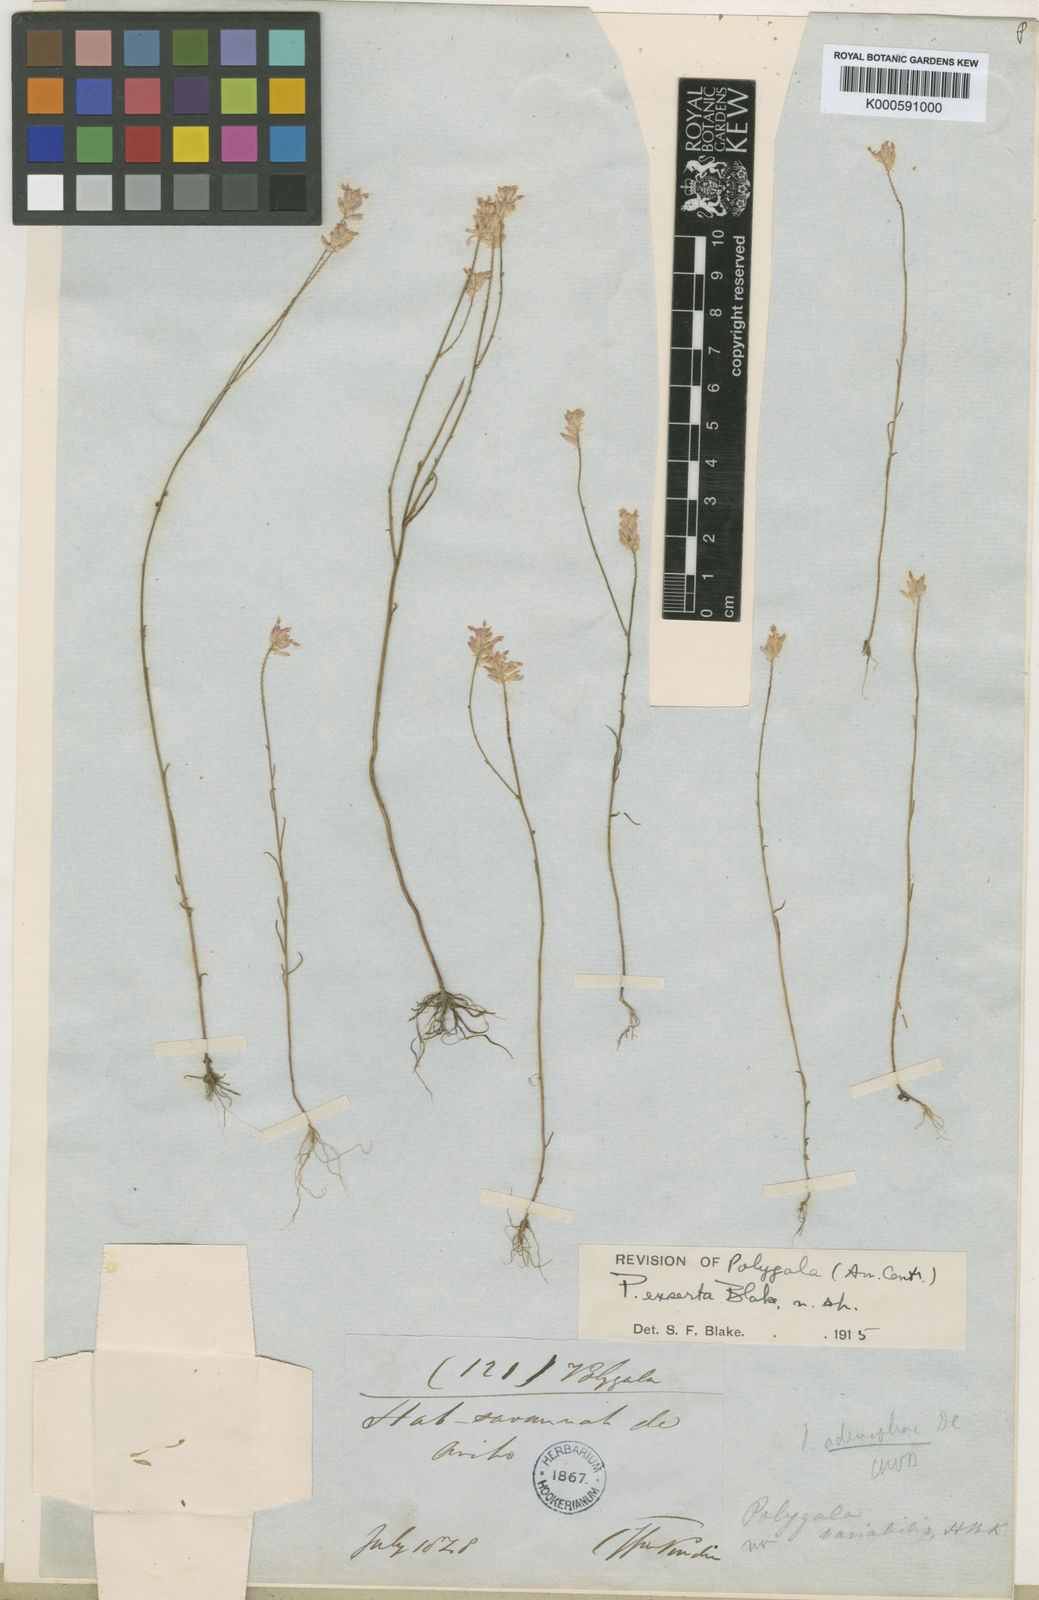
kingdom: Plantae
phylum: Tracheophyta
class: Magnoliopsida
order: Fabales
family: Polygalaceae
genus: Polygala
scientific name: Polygala exserta
